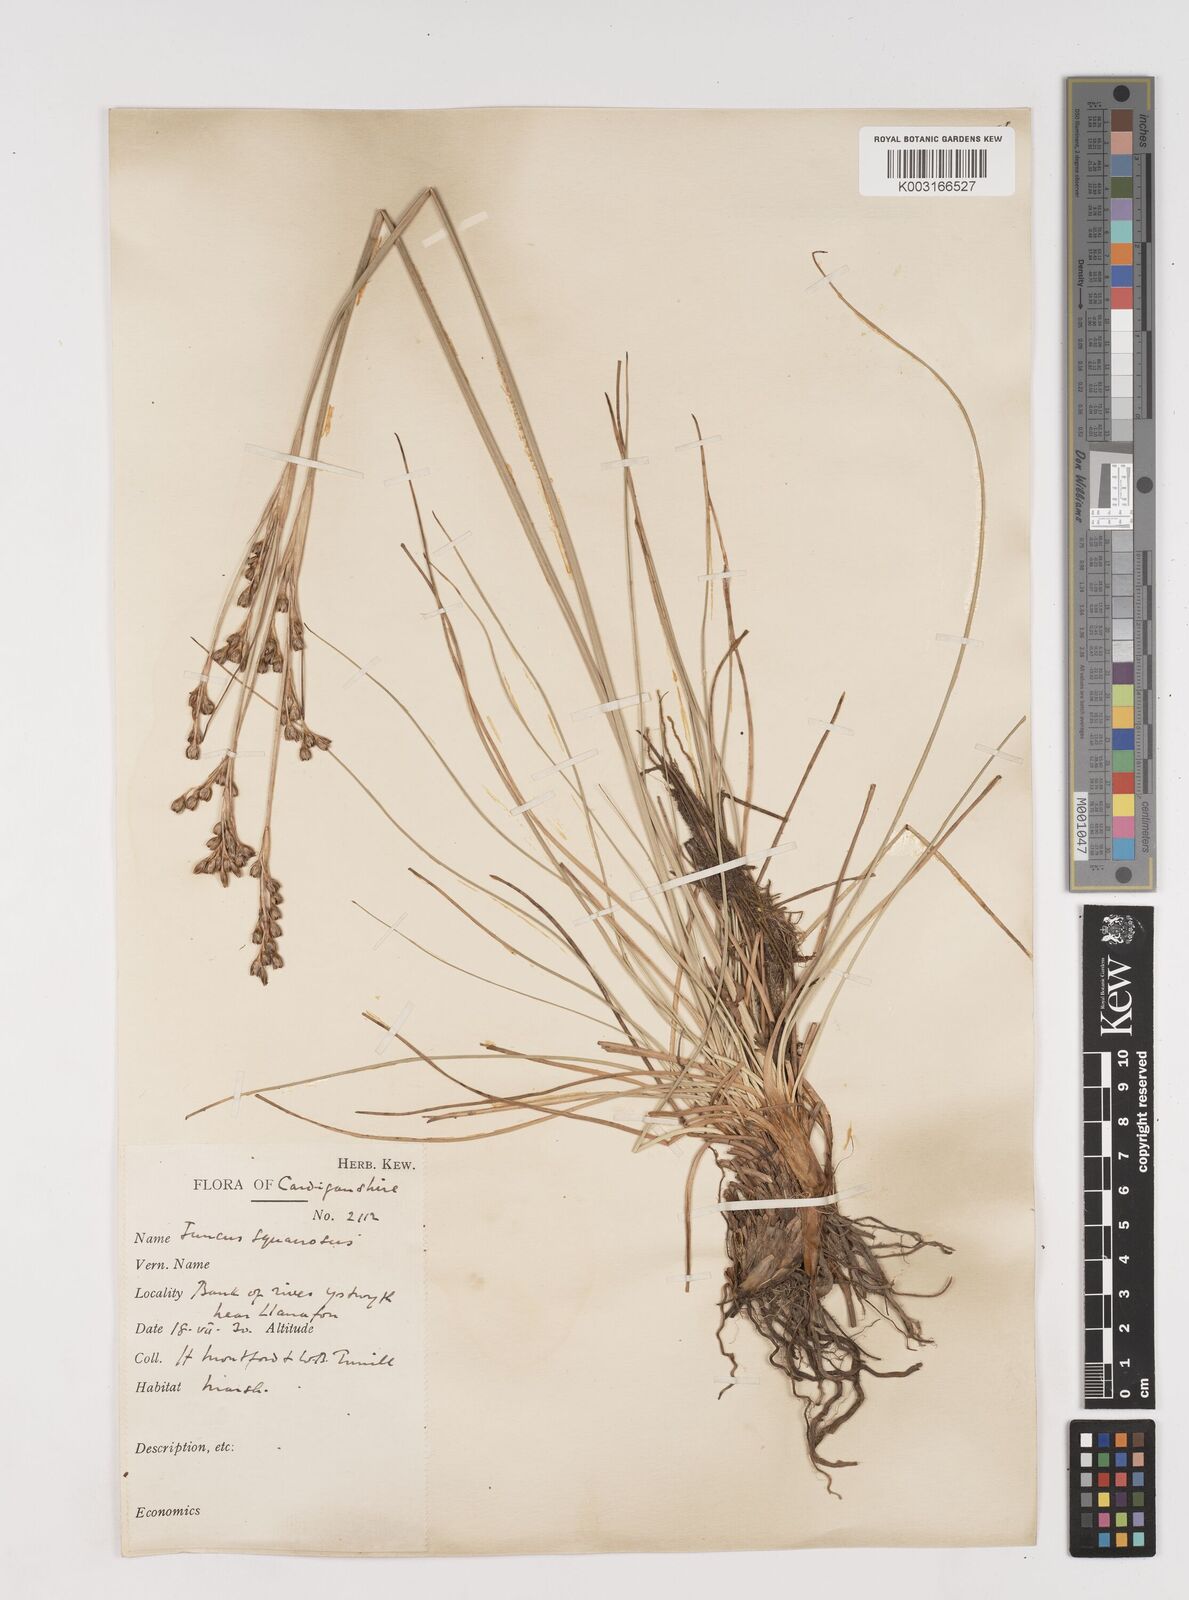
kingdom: Plantae
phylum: Tracheophyta
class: Liliopsida
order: Poales
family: Juncaceae
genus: Juncus
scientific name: Juncus squarrosus
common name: Heath rush
